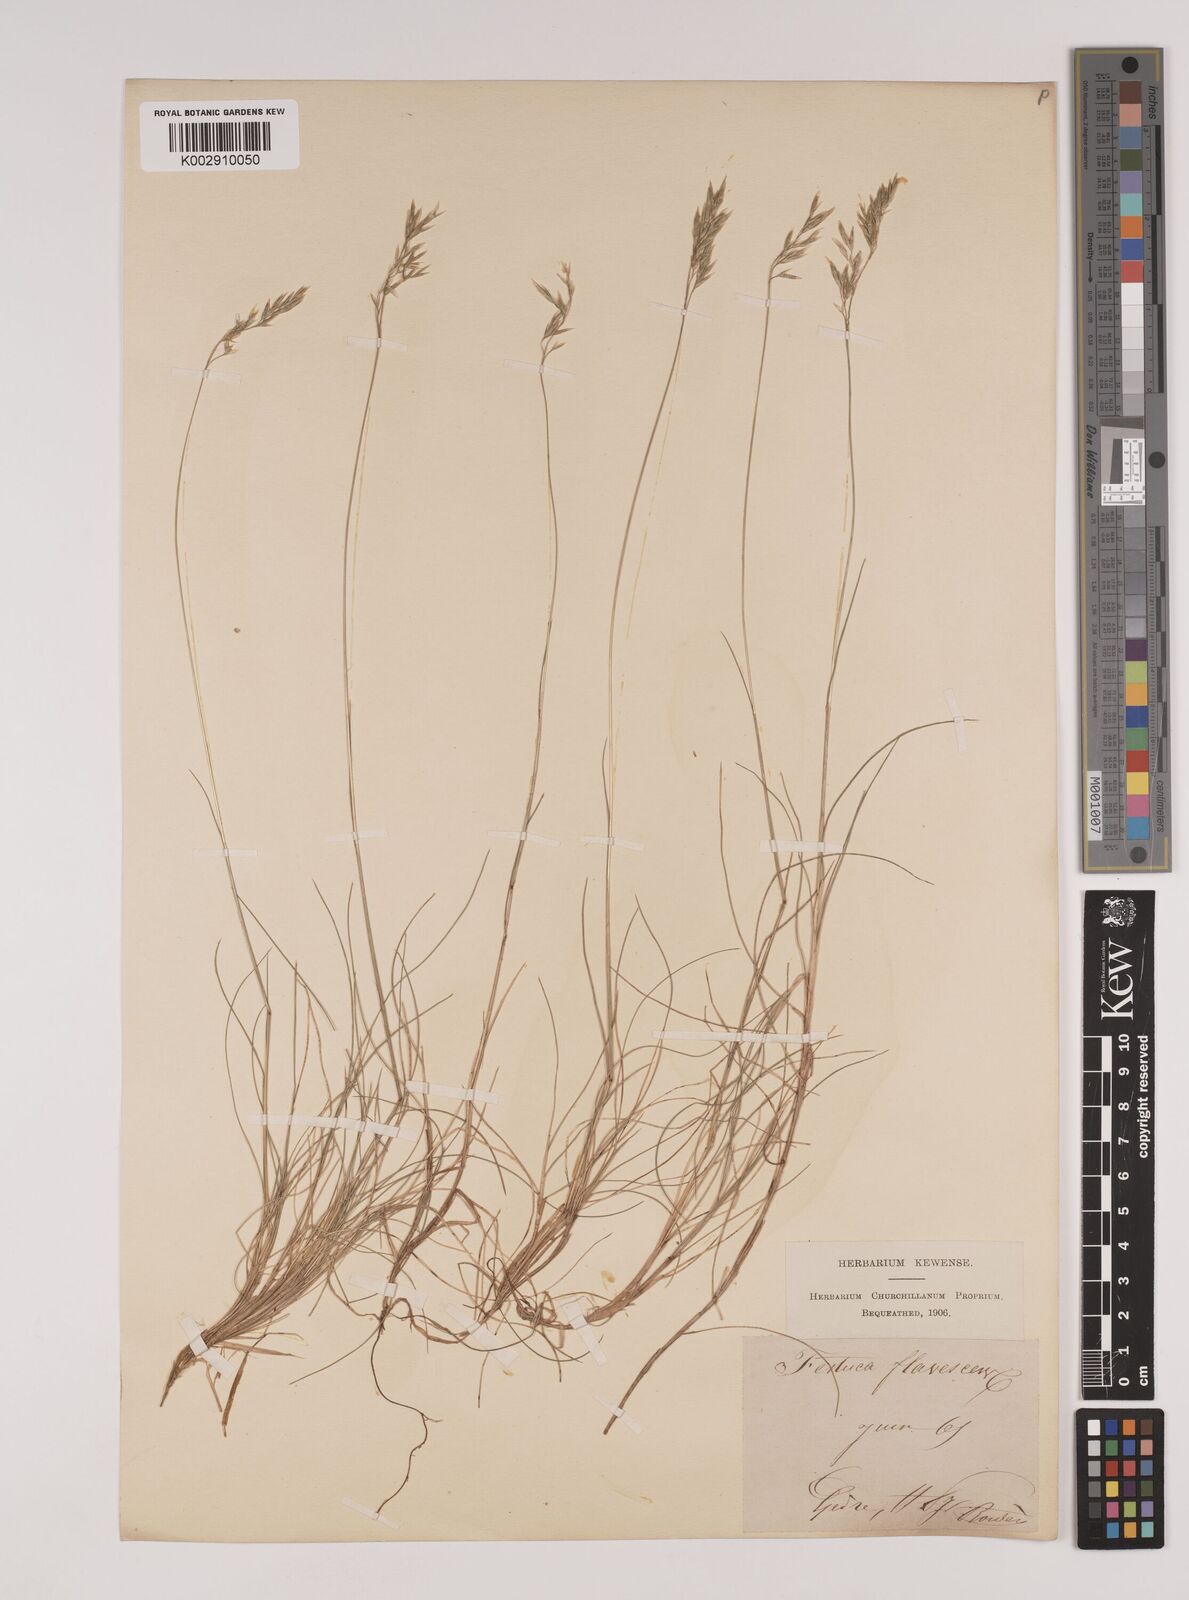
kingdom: Plantae
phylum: Tracheophyta
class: Liliopsida
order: Poales
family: Poaceae
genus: Festuca
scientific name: Festuca gautieri
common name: Spiky fescue
